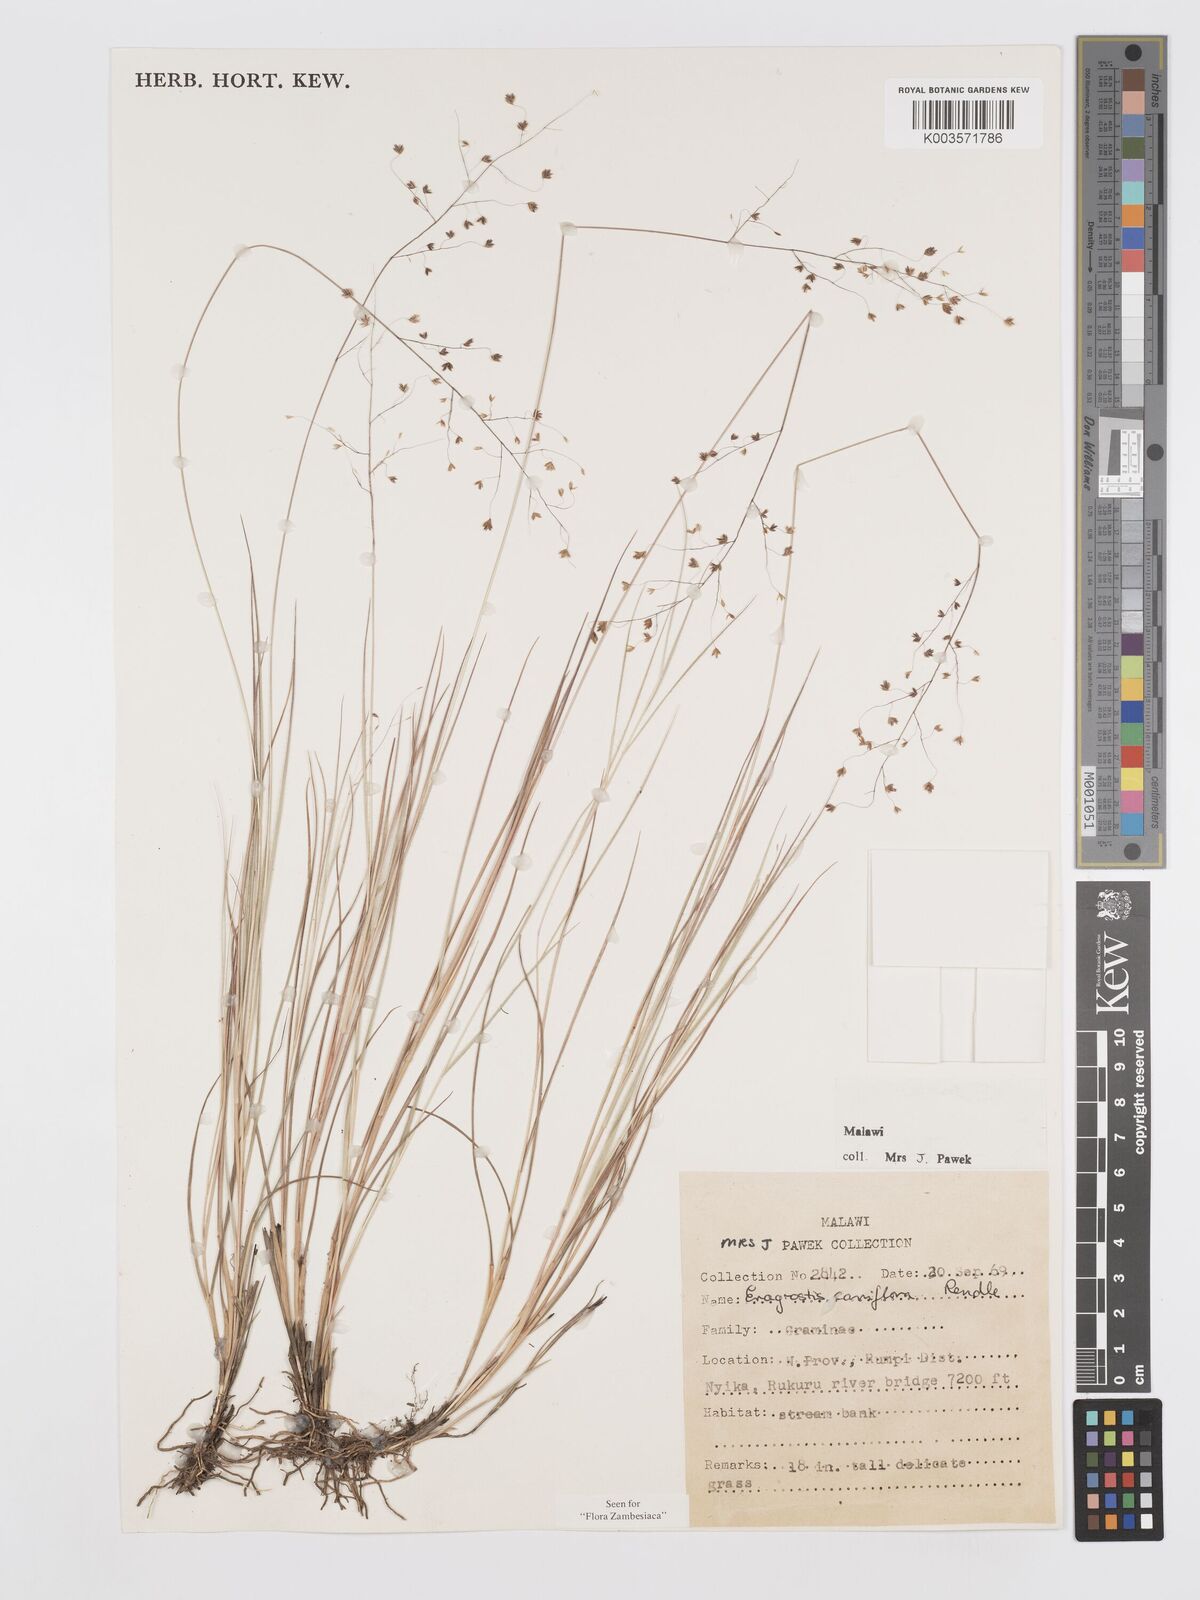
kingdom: Plantae
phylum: Tracheophyta
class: Liliopsida
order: Poales
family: Poaceae
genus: Eragrostis
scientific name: Eragrostis caniflora
